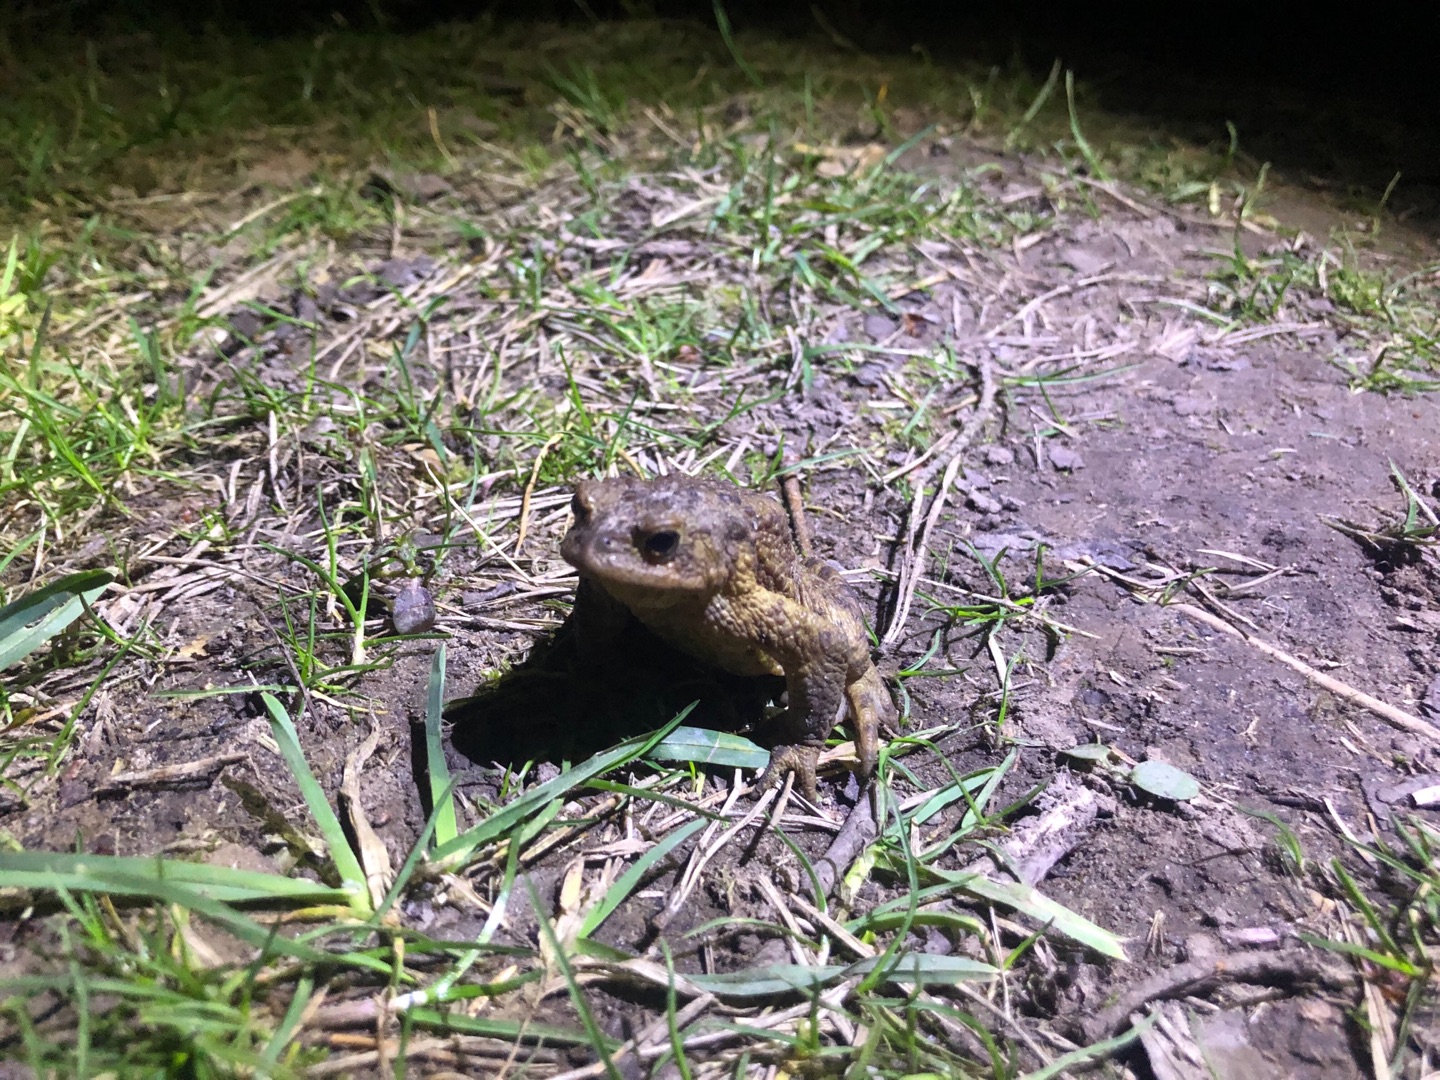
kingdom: Animalia
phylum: Chordata
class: Amphibia
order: Anura
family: Bufonidae
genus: Bufo
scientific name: Bufo bufo
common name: Skrubtudse
